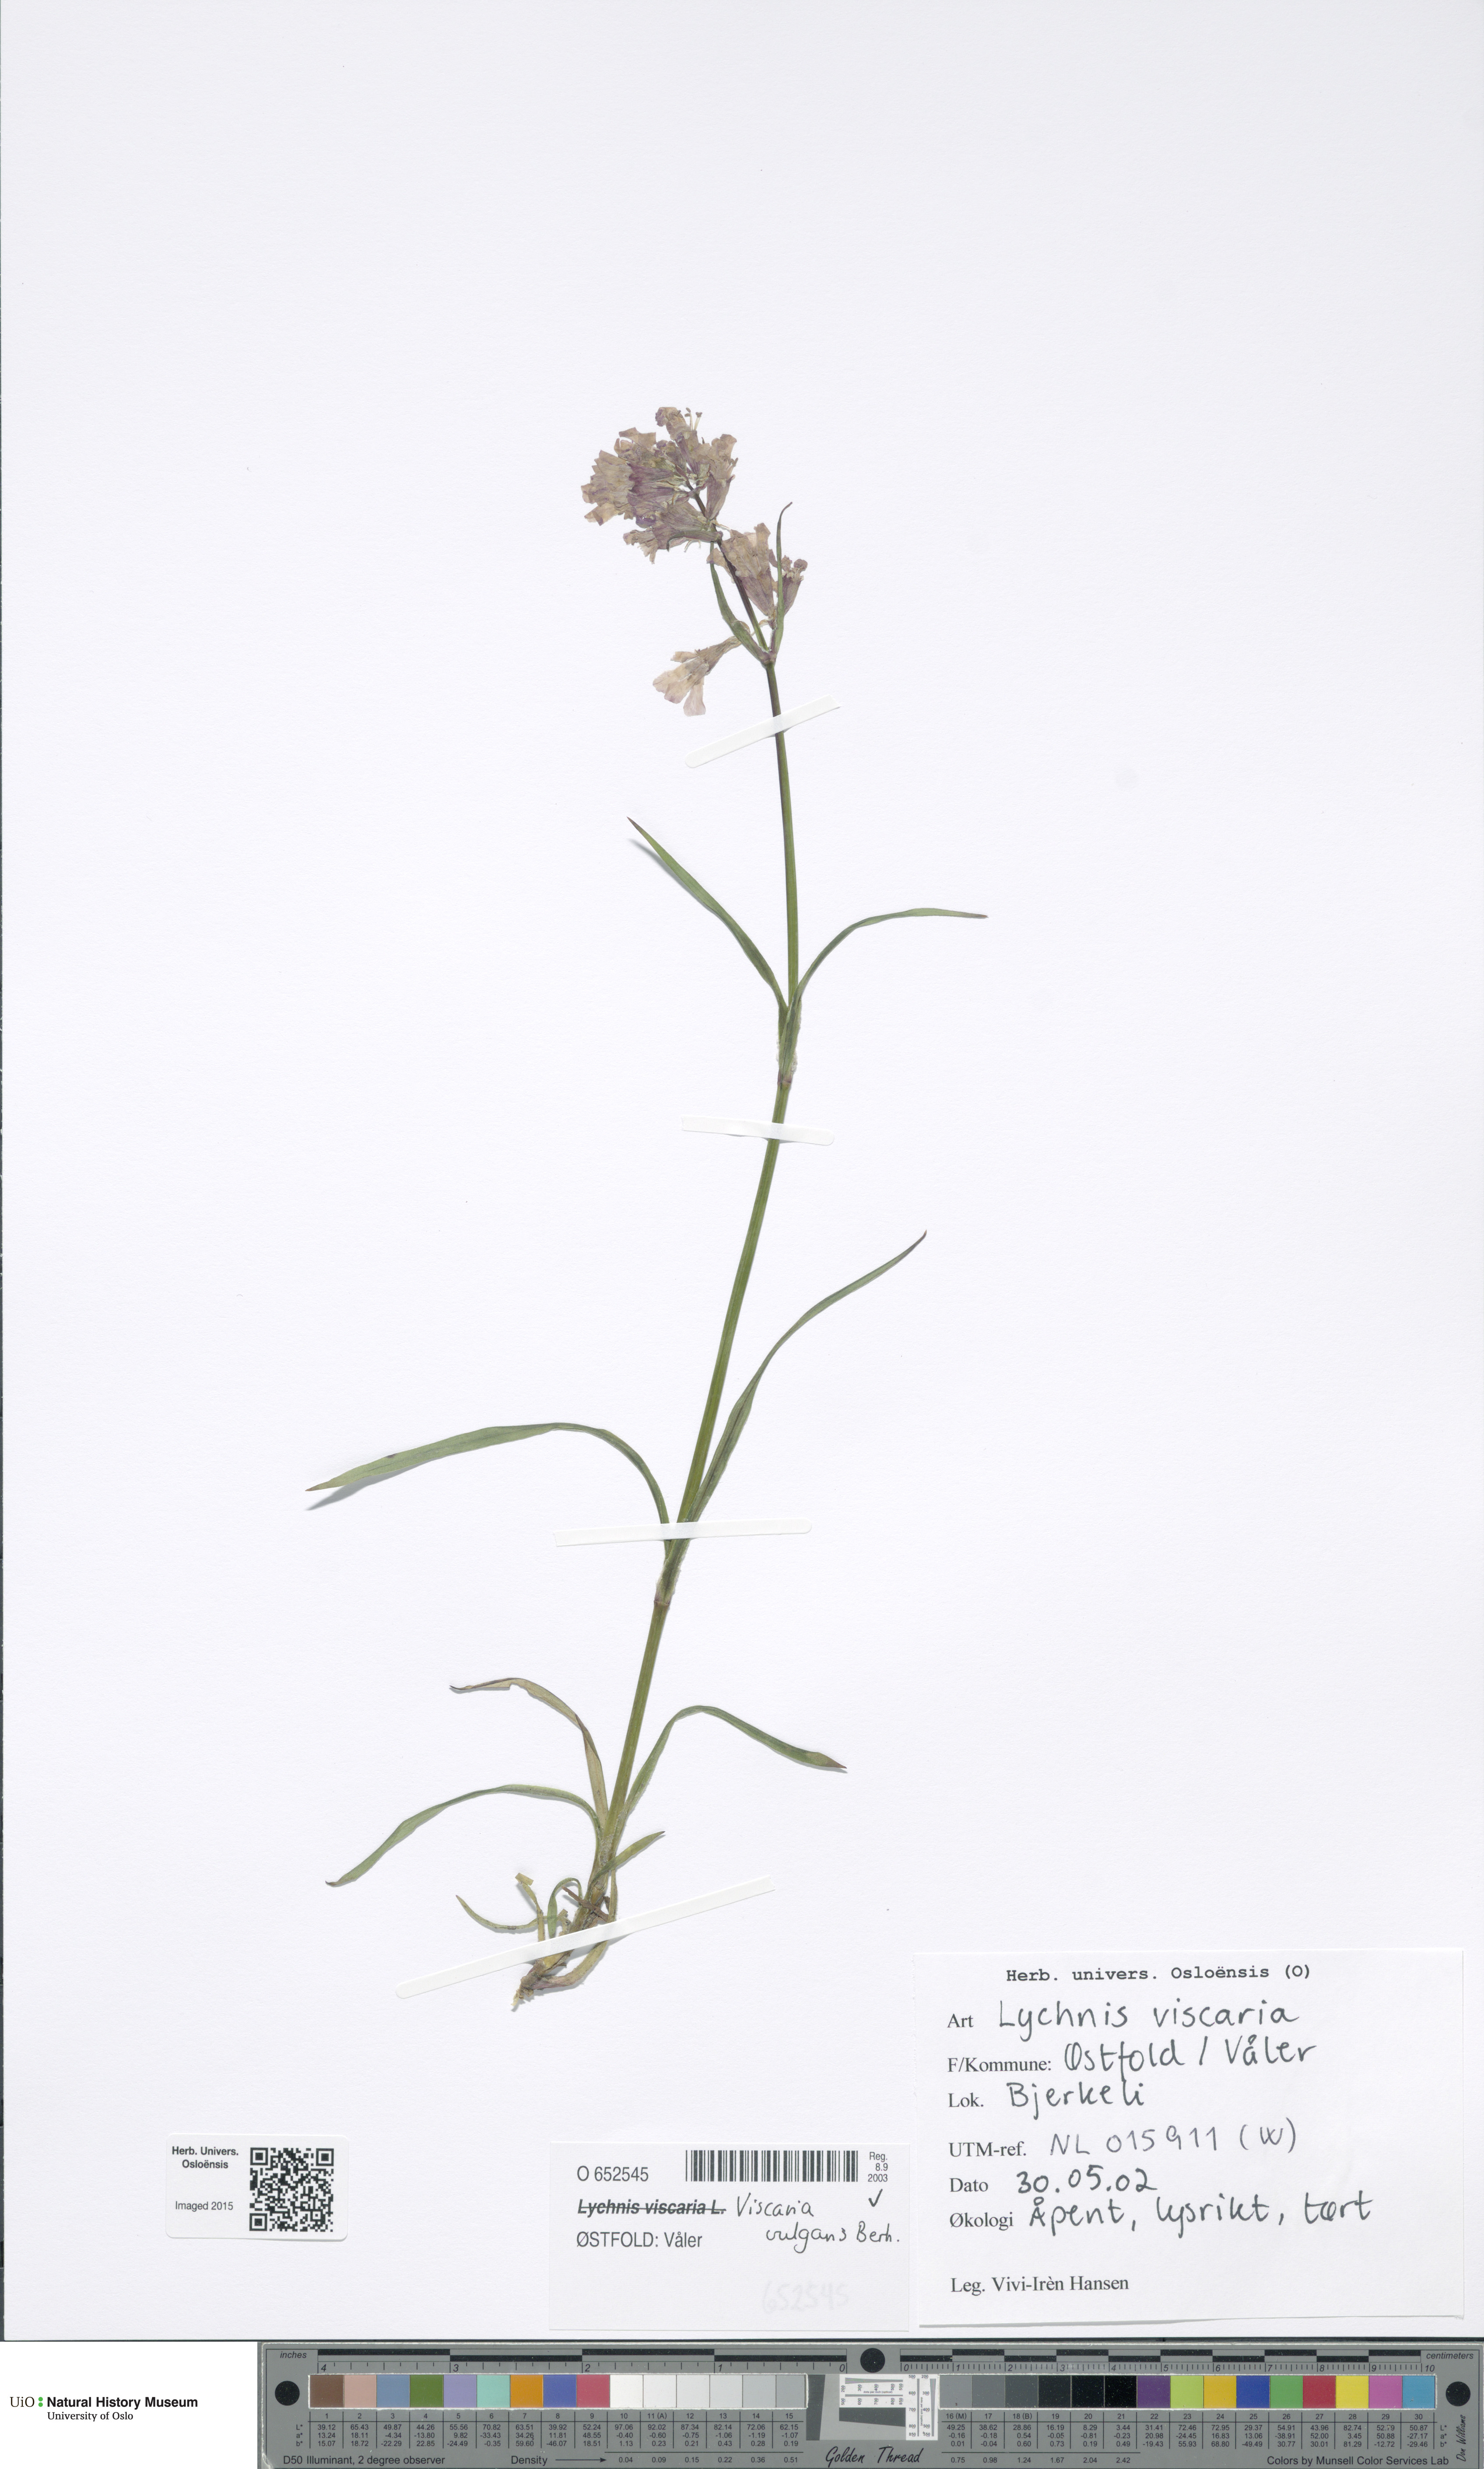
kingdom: Plantae
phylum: Tracheophyta
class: Magnoliopsida
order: Caryophyllales
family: Caryophyllaceae
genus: Viscaria
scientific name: Viscaria vulgaris
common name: Clammy campion
